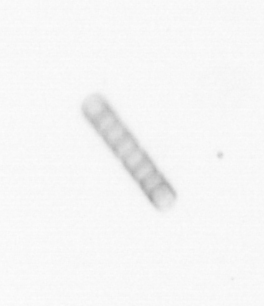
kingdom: Chromista
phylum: Ochrophyta
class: Bacillariophyceae
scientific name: Bacillariophyceae
